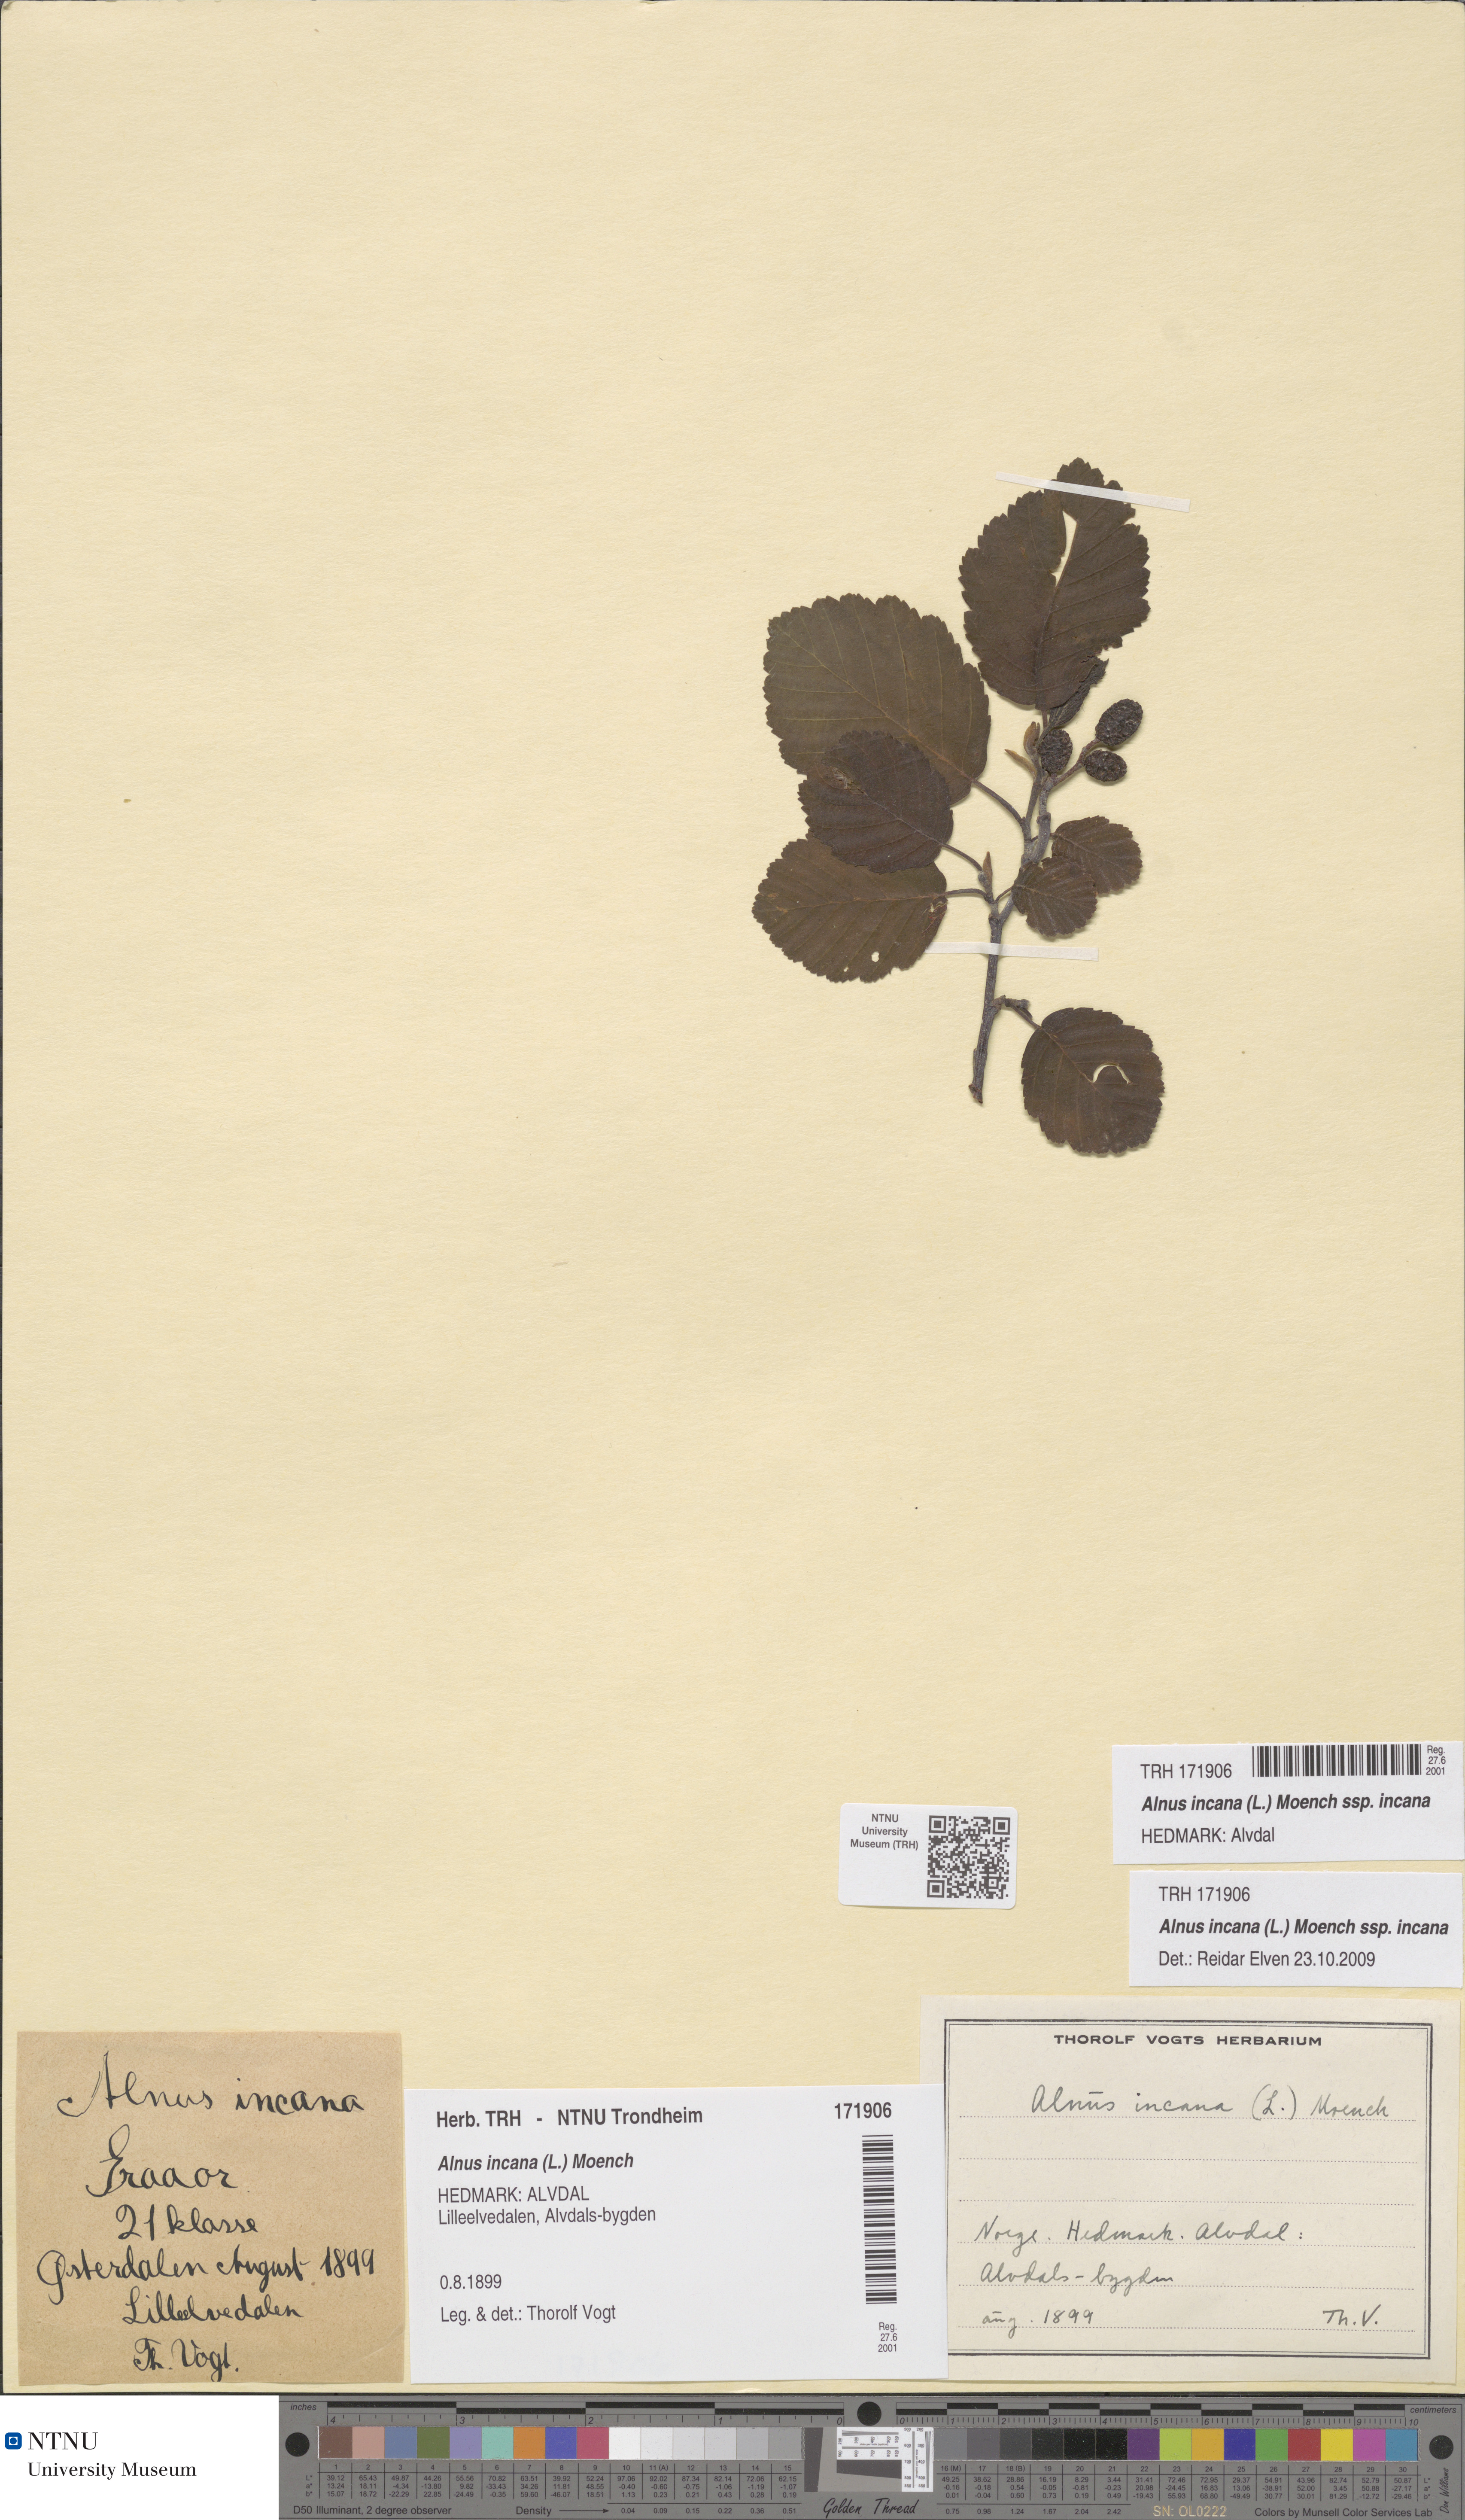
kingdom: Plantae
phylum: Tracheophyta
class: Magnoliopsida
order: Fagales
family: Betulaceae
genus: Alnus
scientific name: Alnus incana
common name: Grey alder
